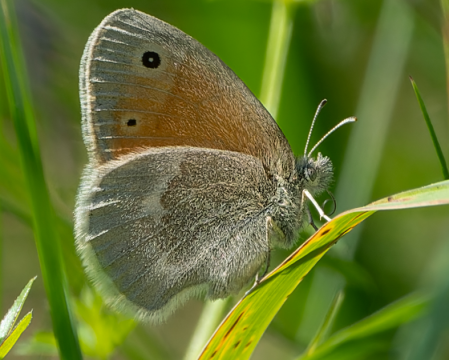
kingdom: Animalia
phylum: Arthropoda
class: Insecta
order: Lepidoptera
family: Nymphalidae
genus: Coenonympha
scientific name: Coenonympha california
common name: California Ringlet
